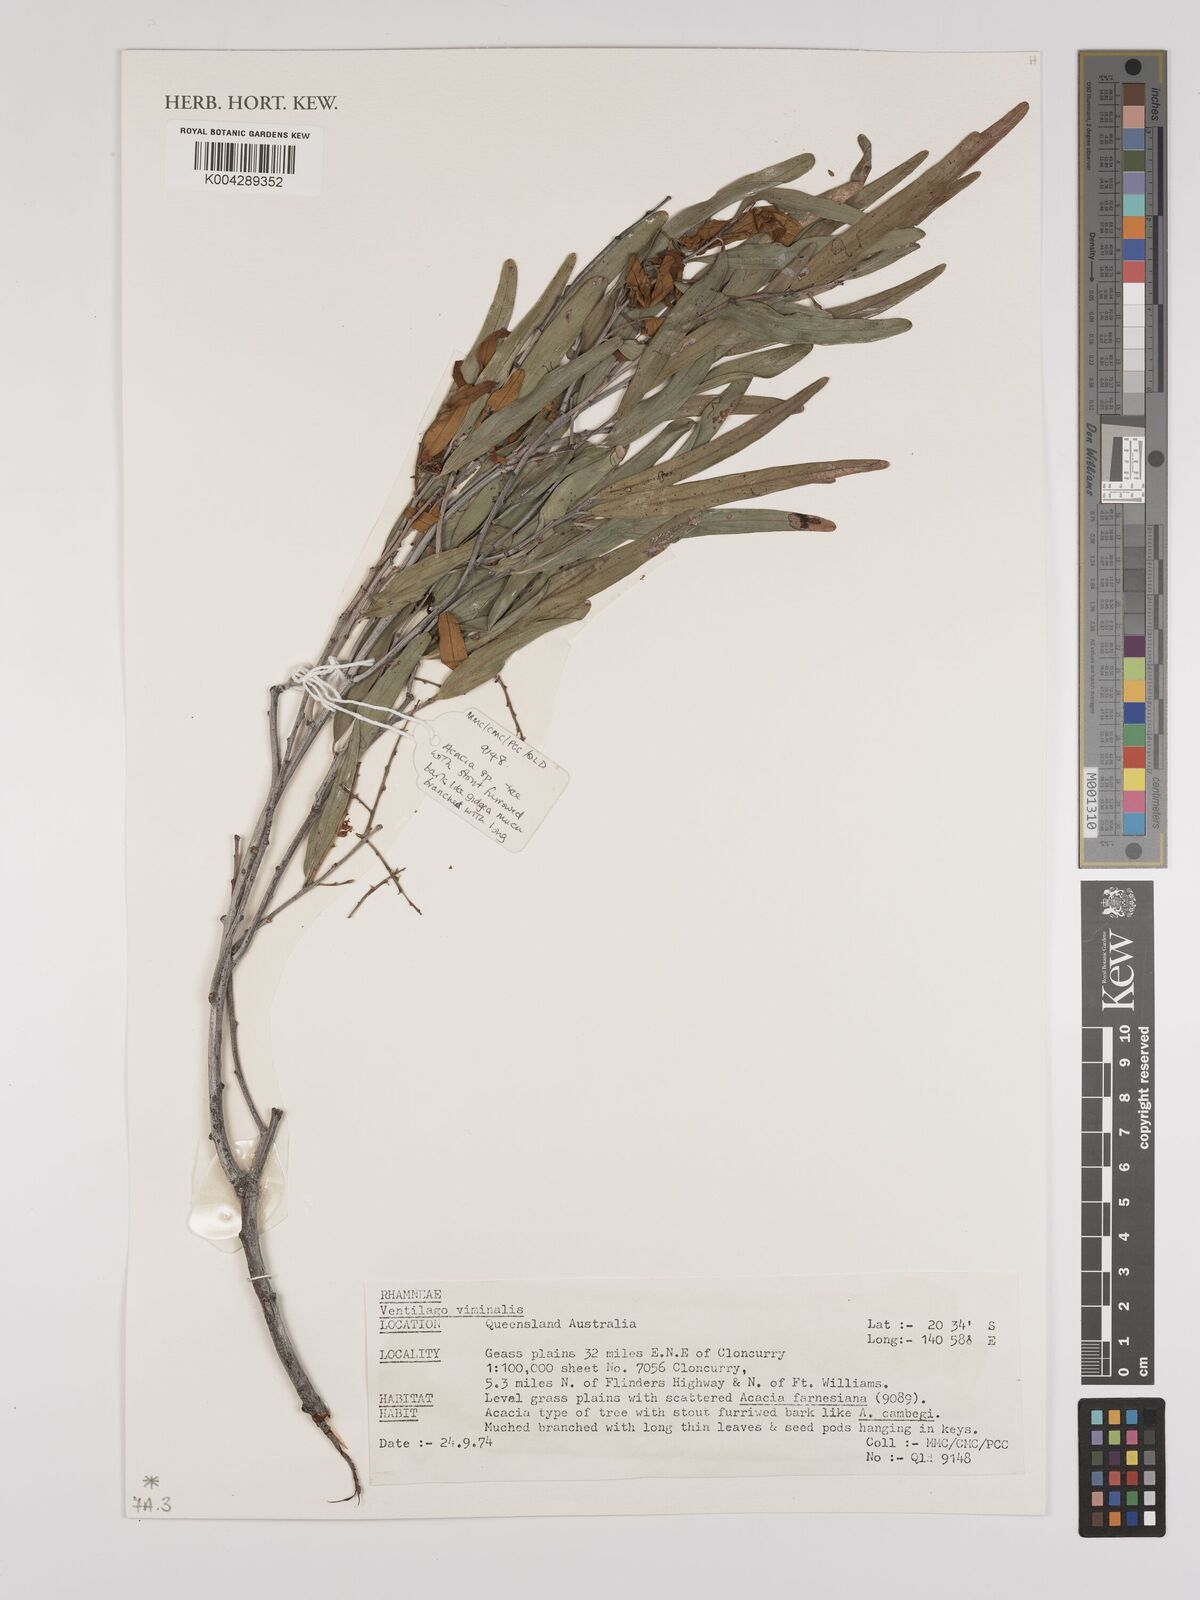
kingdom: Plantae
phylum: Tracheophyta
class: Magnoliopsida
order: Rosales
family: Rhamnaceae
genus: Ventilago
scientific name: Ventilago viminalis
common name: Medicine-bark
